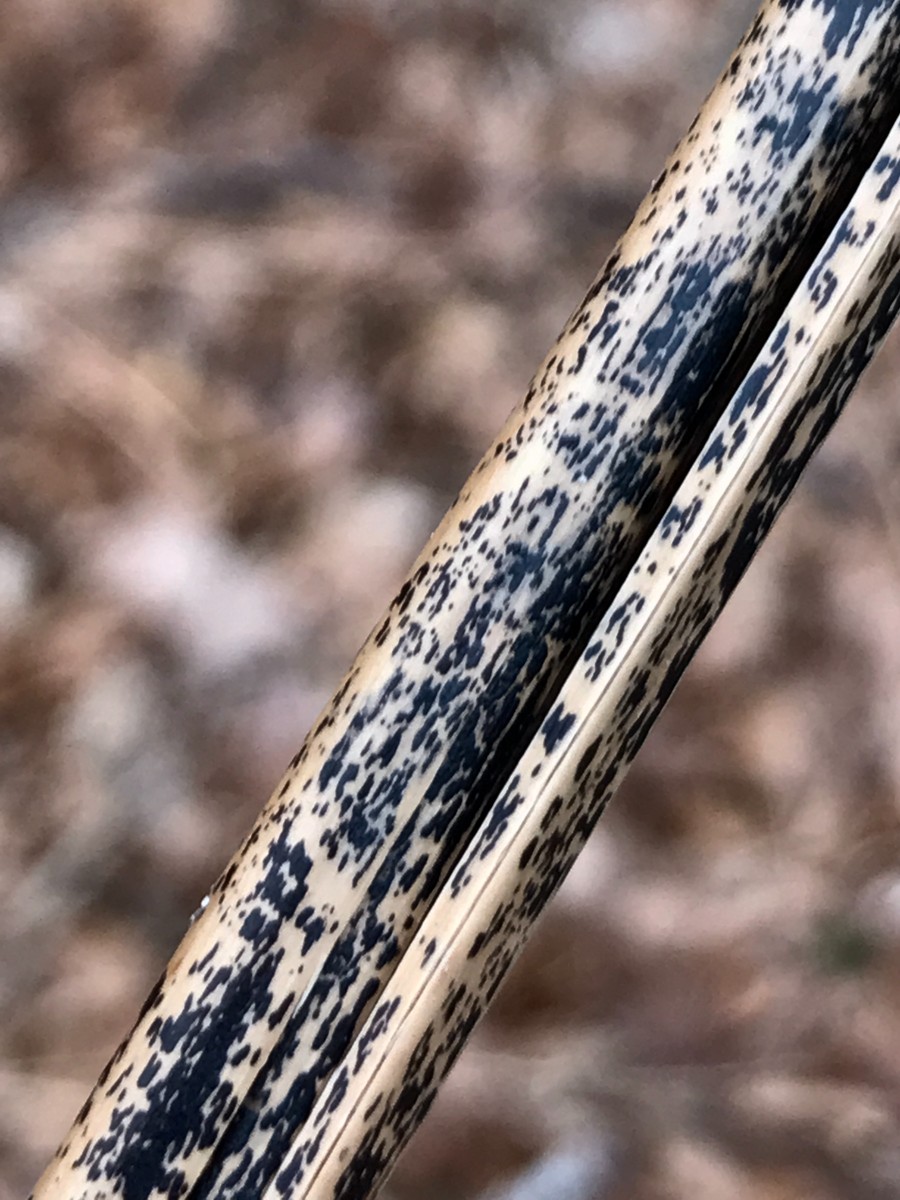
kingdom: Fungi
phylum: Ascomycota
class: Dothideomycetes
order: Pleosporales
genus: Rhopographus
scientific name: Rhopographus filicinus
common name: Bracken map
